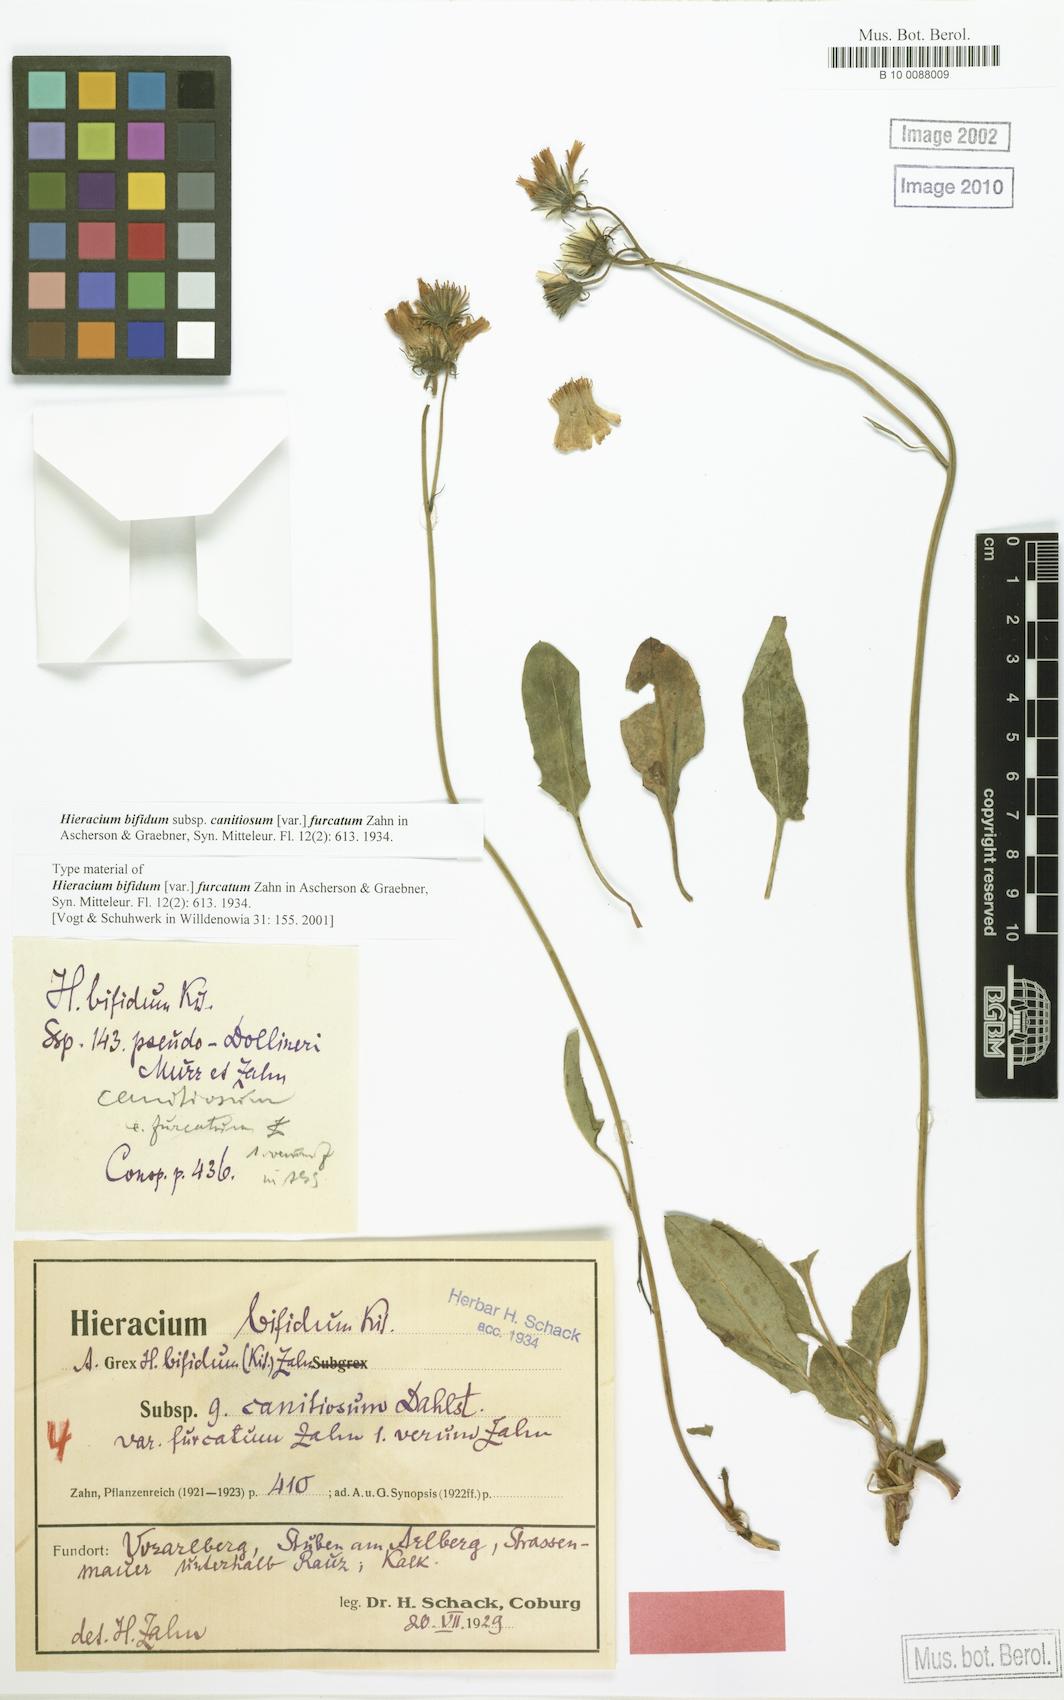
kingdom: Plantae
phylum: Tracheophyta
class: Magnoliopsida
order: Asterales
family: Asteraceae
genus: Hieracium
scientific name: Hieracium bifidum
